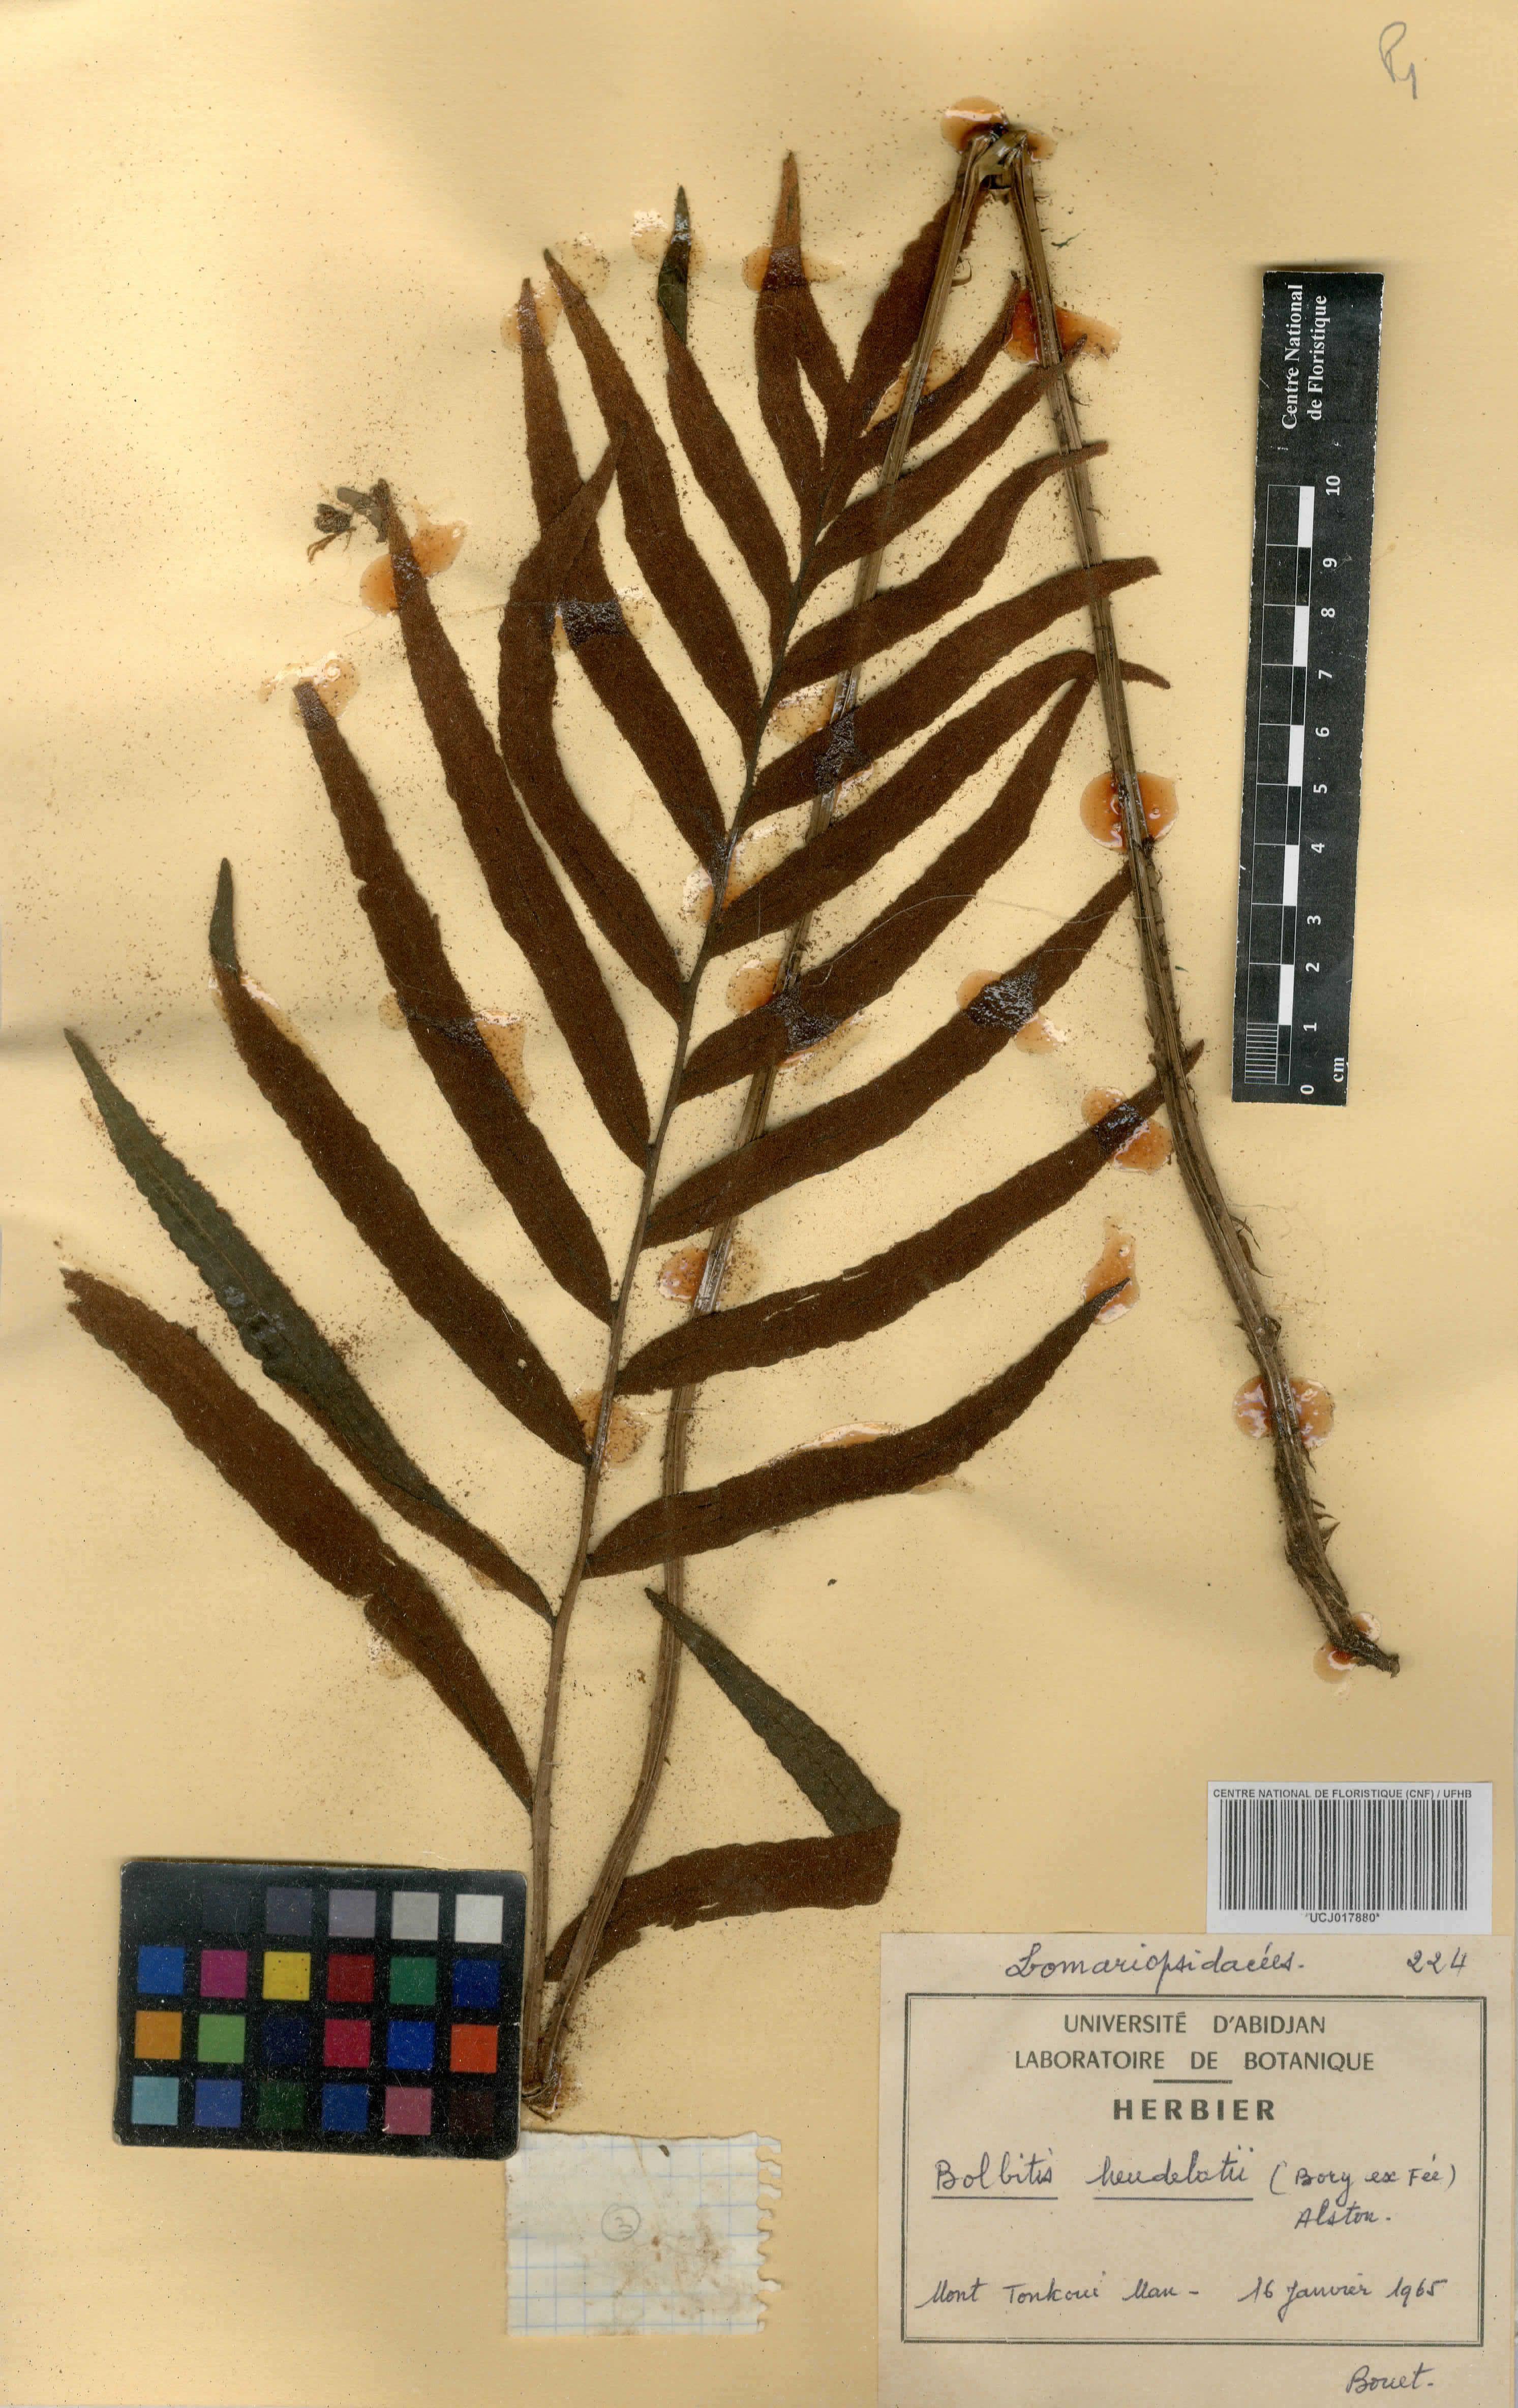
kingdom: Plantae
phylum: Tracheophyta
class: Polypodiopsida
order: Polypodiales
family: Dryopteridaceae
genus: Bolbitis
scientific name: Bolbitis heudelotii
